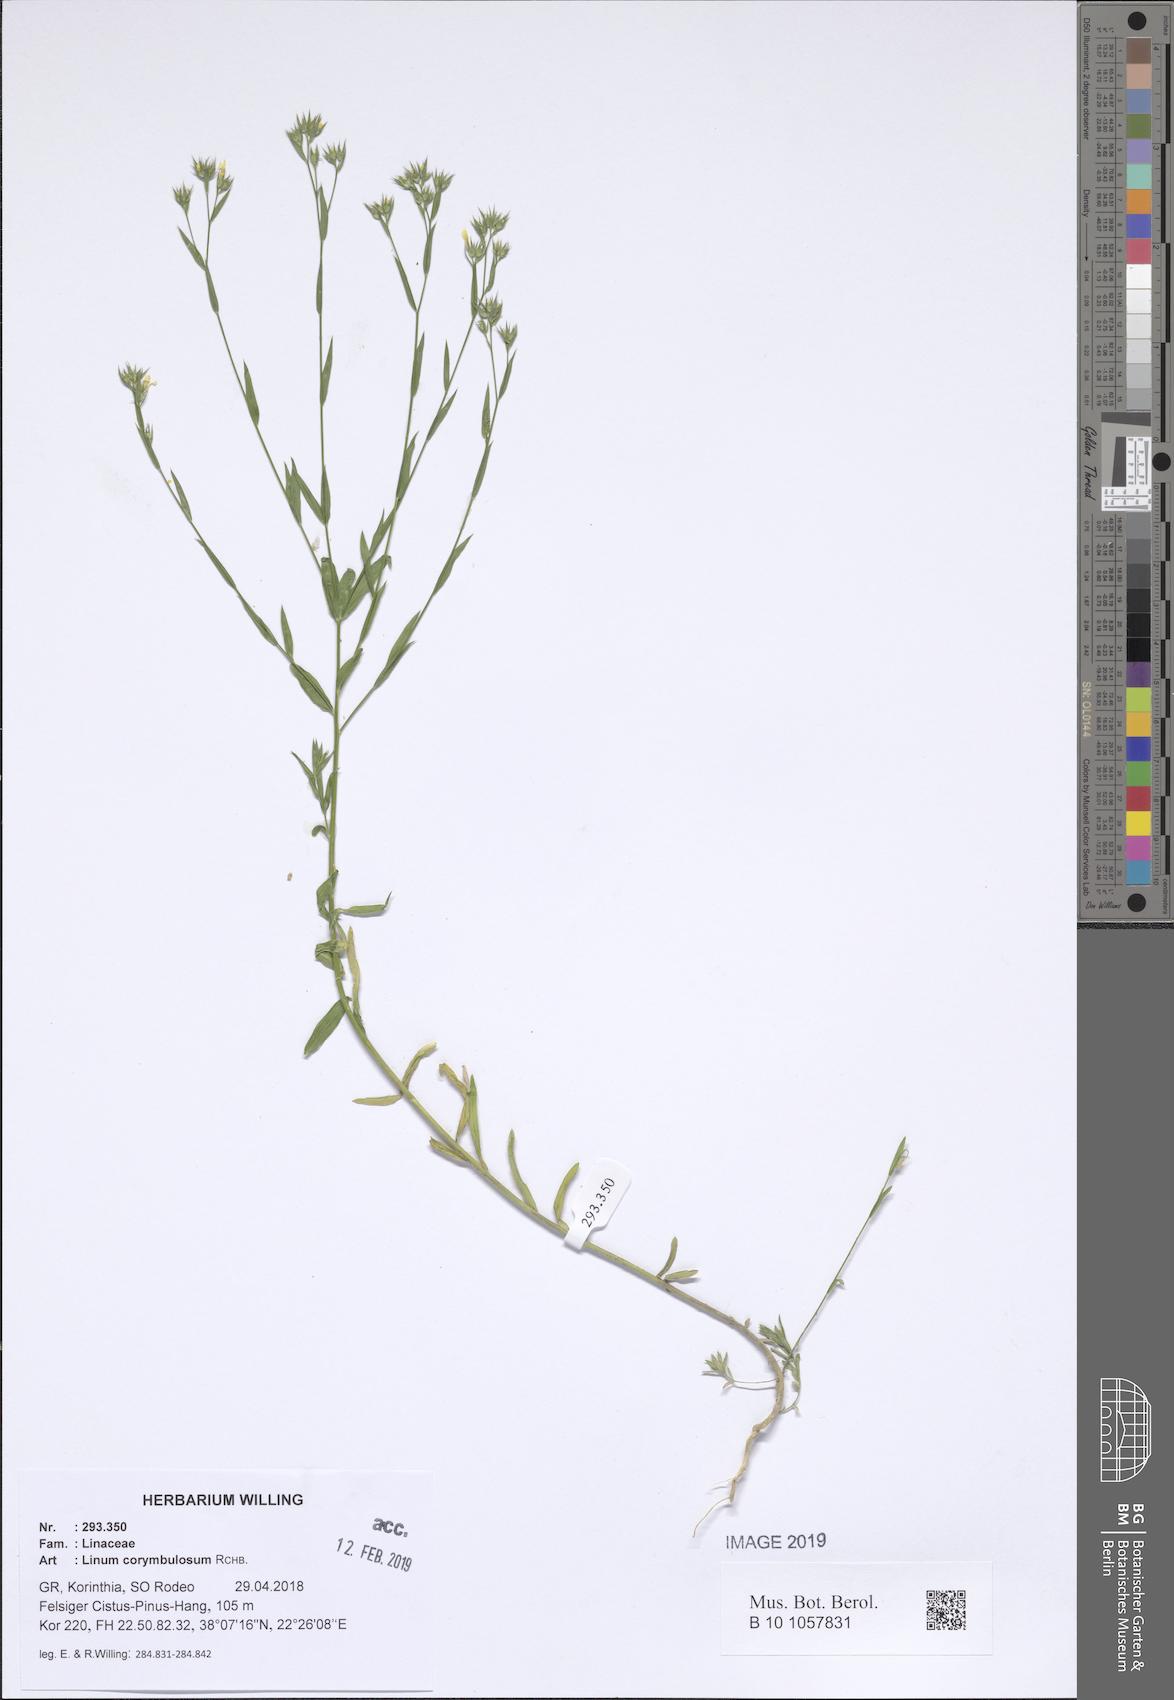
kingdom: Plantae
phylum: Tracheophyta
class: Magnoliopsida
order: Malpighiales
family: Linaceae
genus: Linum
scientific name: Linum corymbulosum
